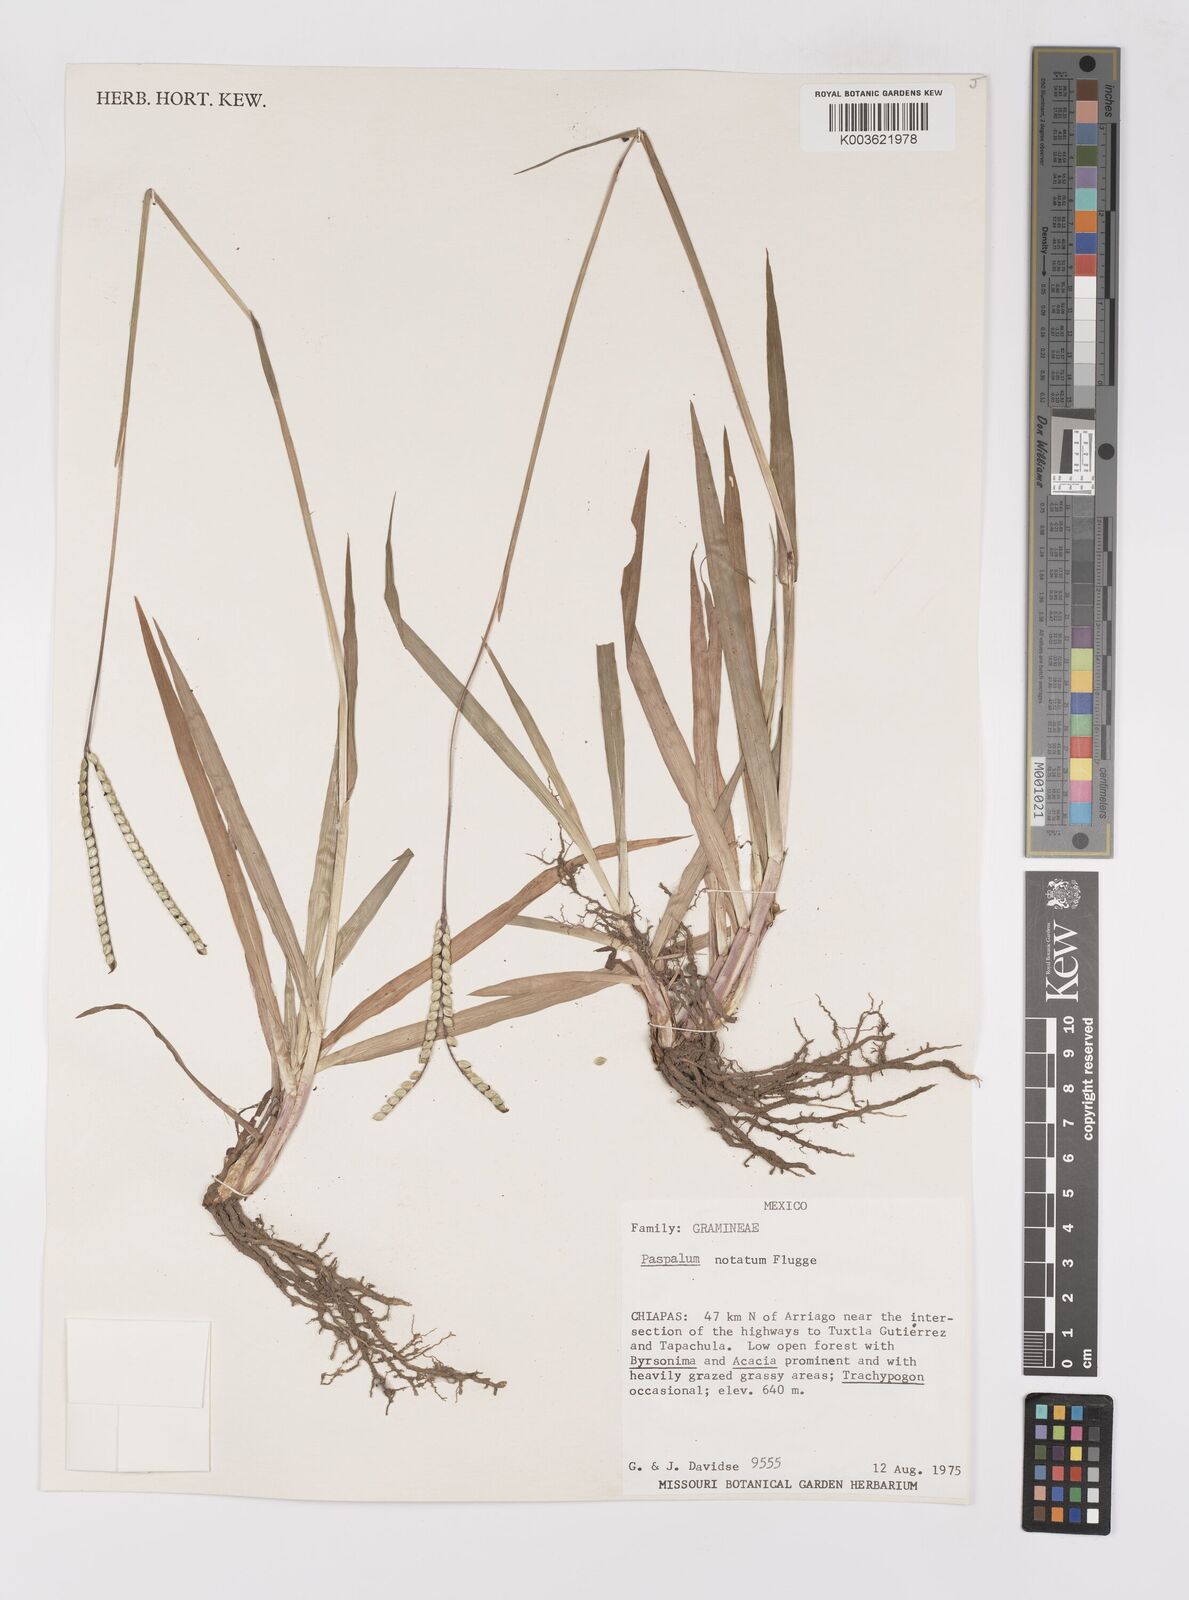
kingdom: Plantae
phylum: Tracheophyta
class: Liliopsida
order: Poales
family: Poaceae
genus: Paspalum
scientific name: Paspalum notatum
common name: Bahiagrass
